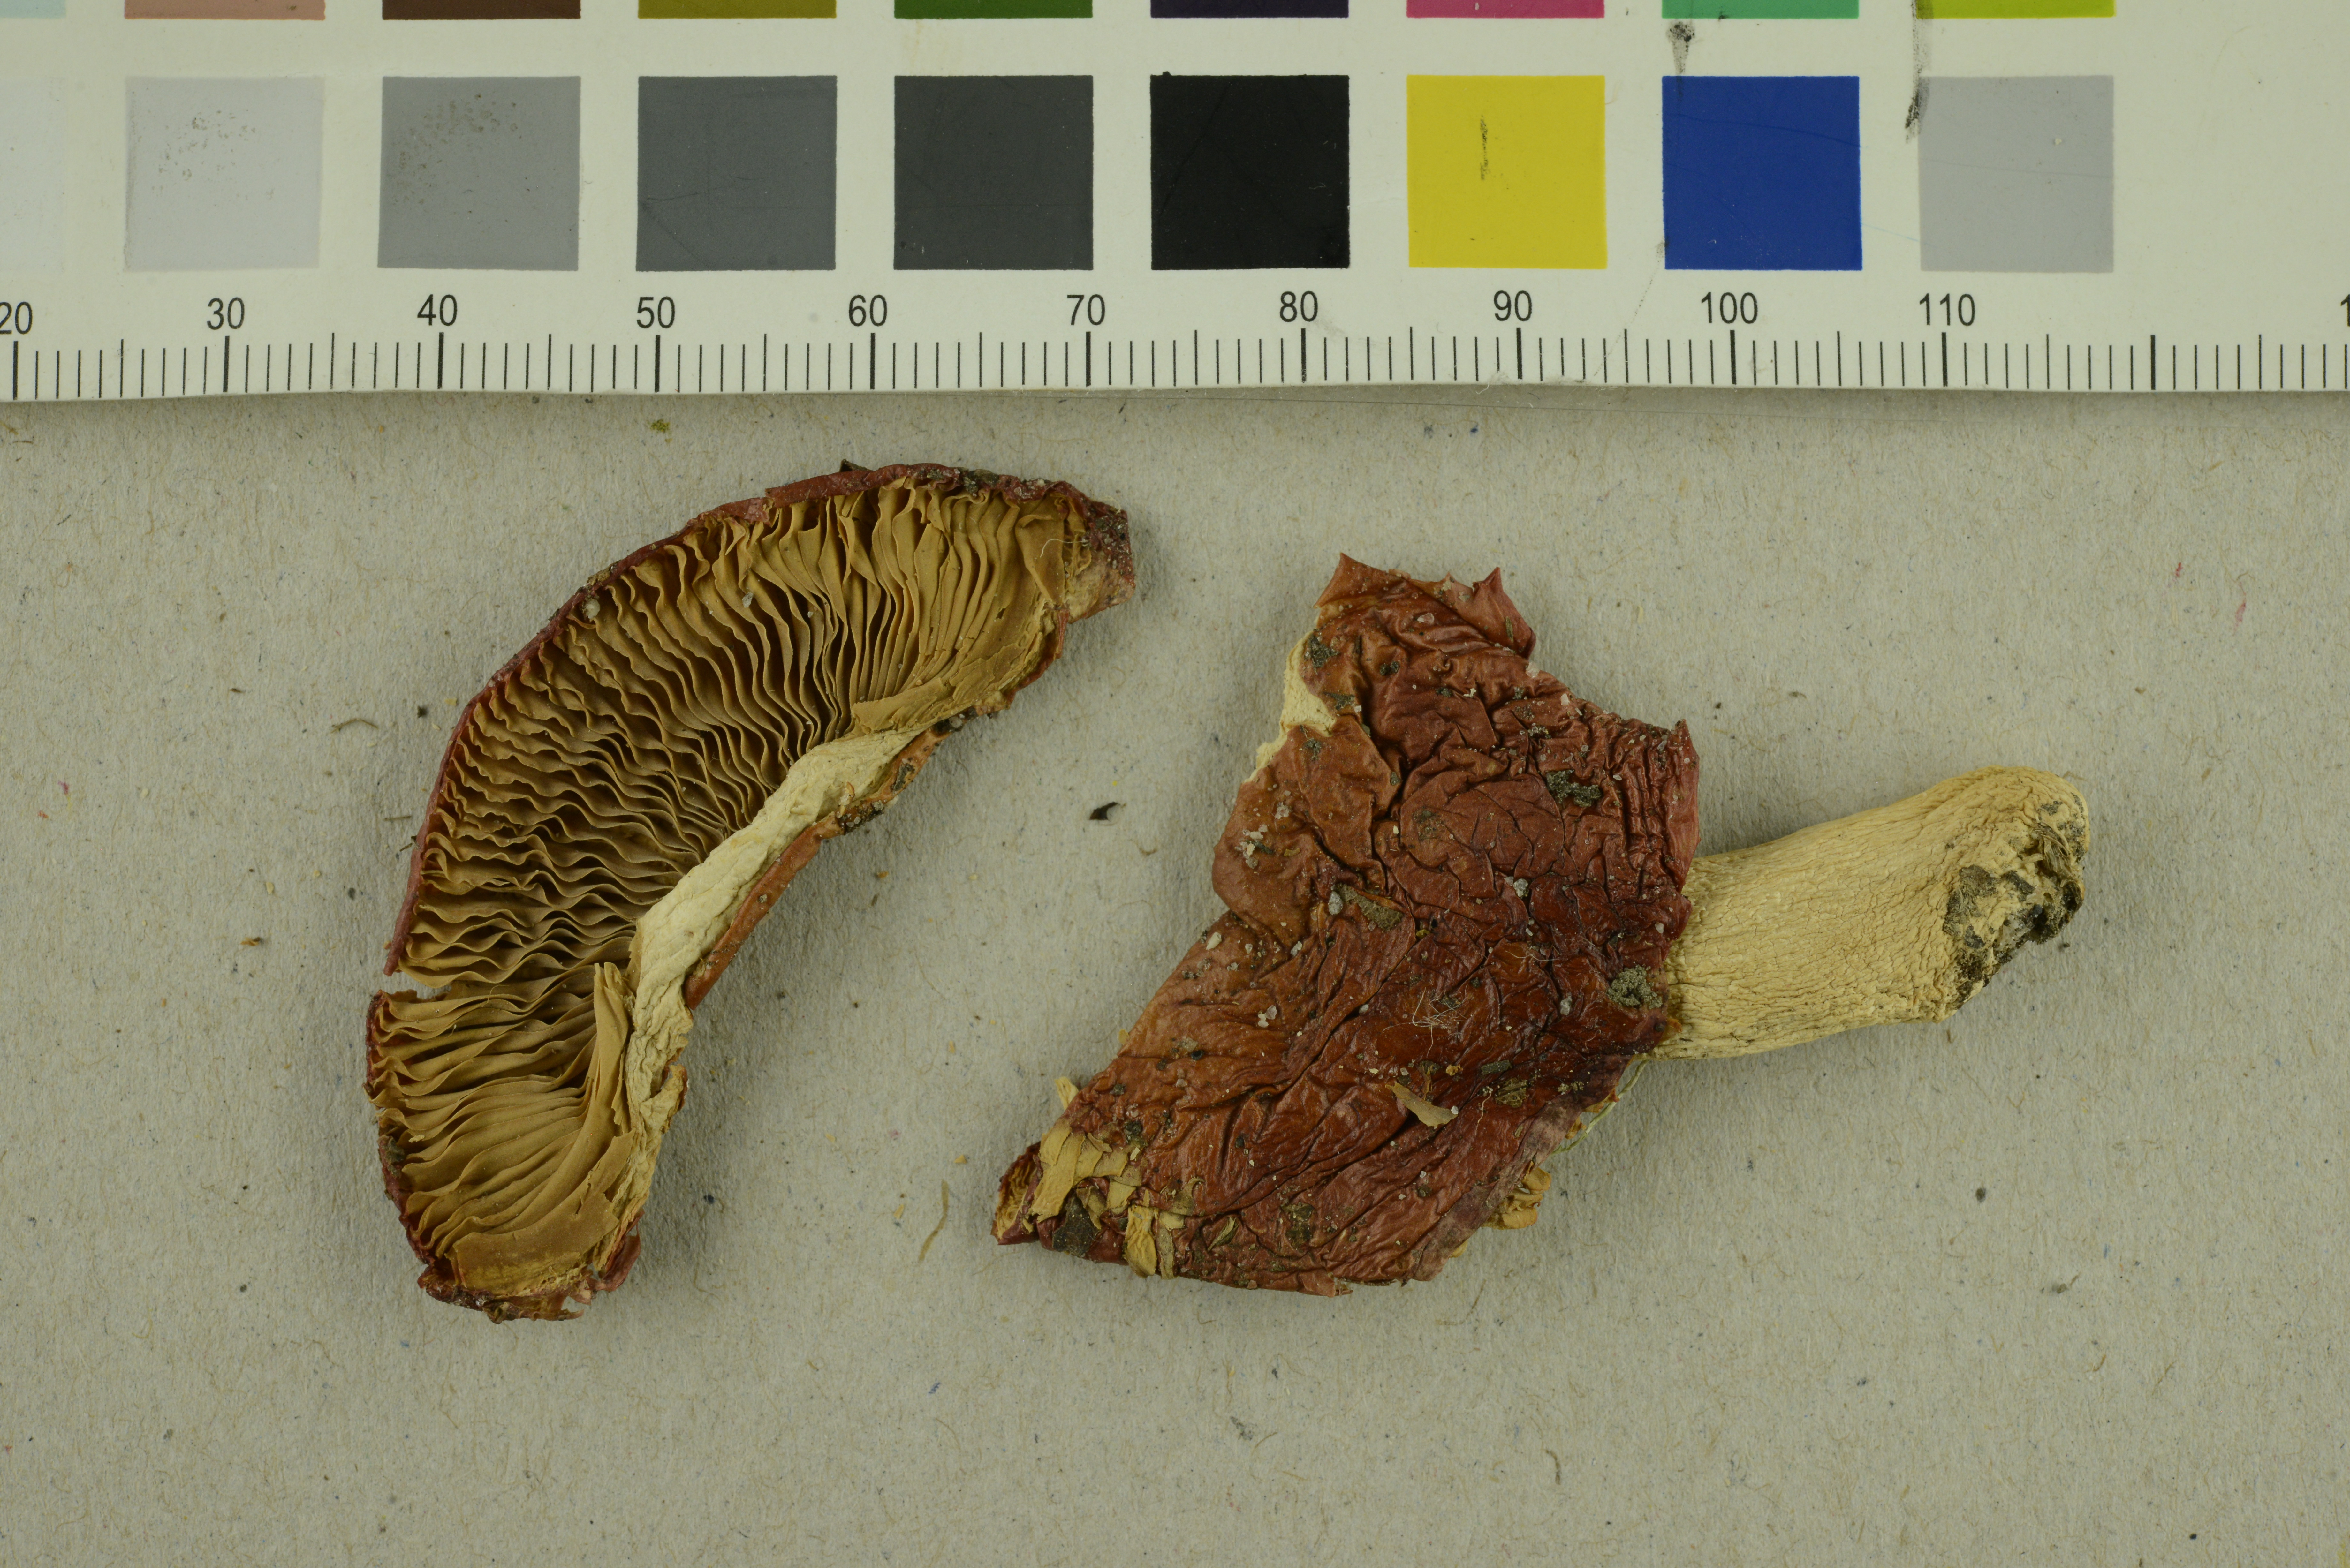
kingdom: Fungi
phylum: Basidiomycota
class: Agaricomycetes
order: Russulales
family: Russulaceae
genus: Russula
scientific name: Russula aurantioflammans
